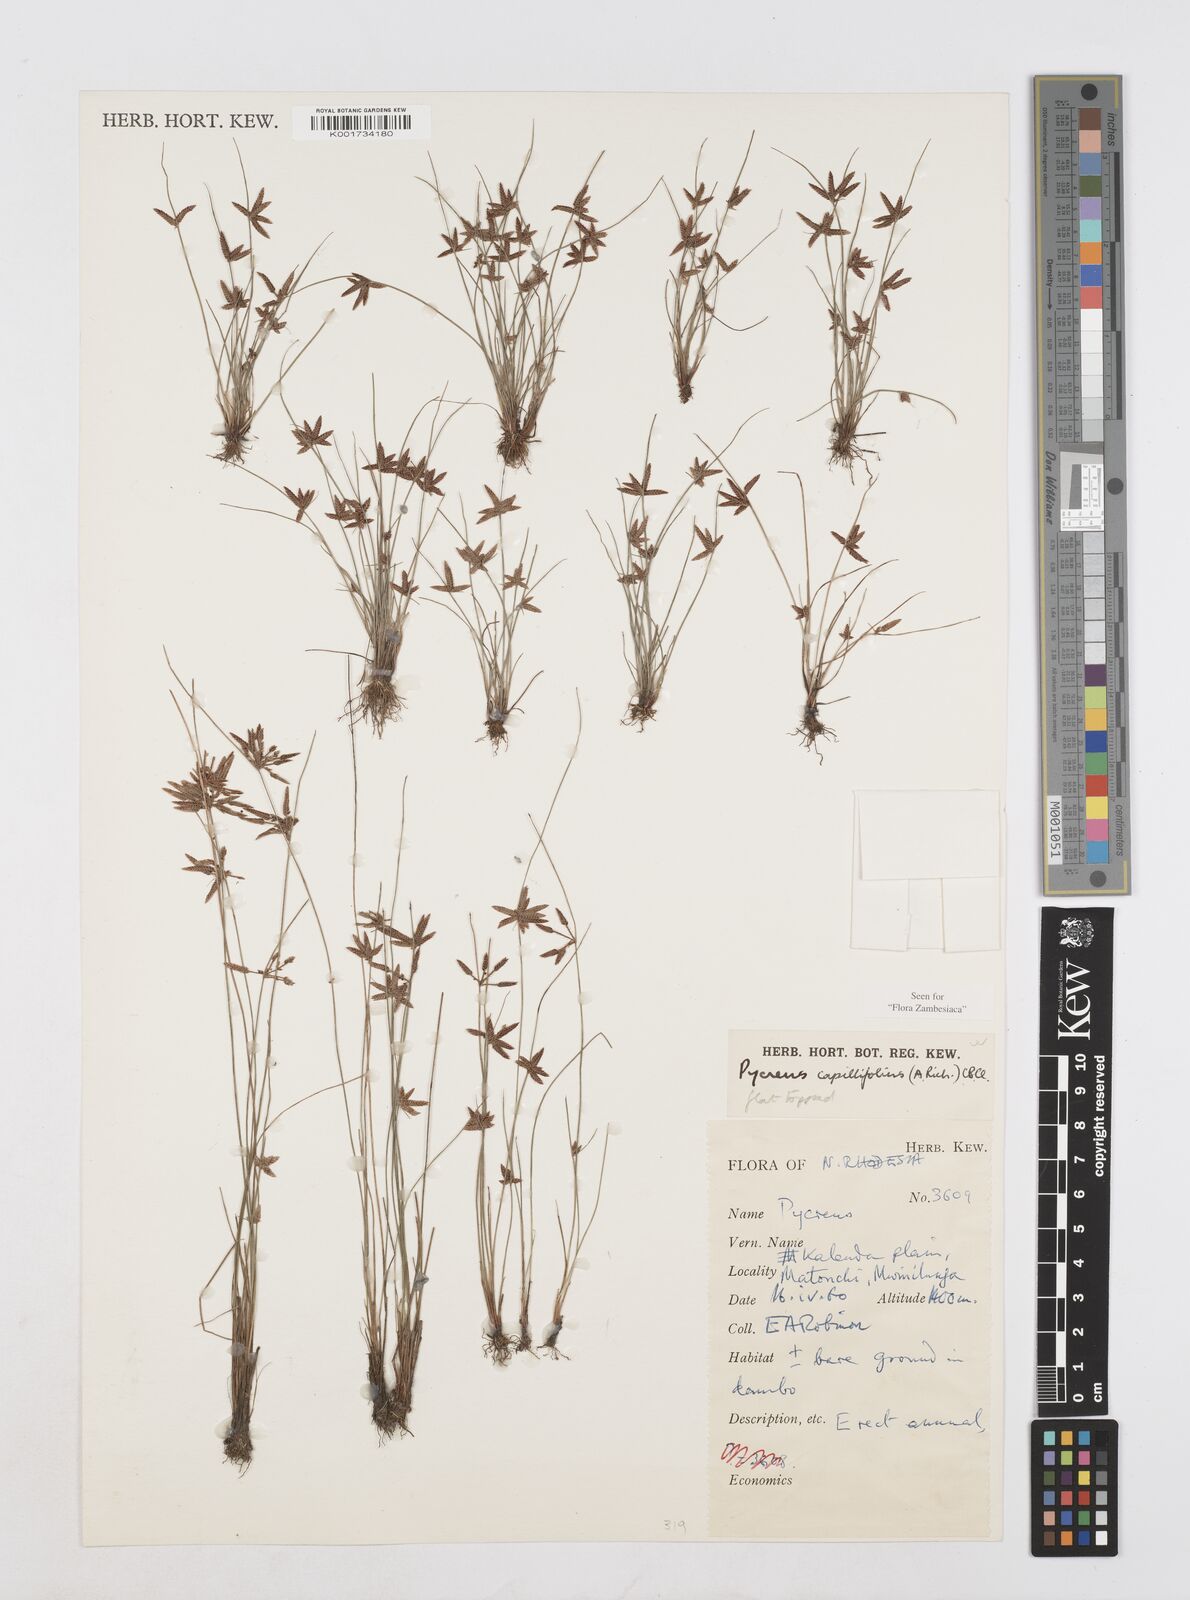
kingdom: Plantae
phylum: Tracheophyta
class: Liliopsida
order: Poales
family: Cyperaceae
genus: Cyperus
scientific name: Cyperus capillifolius
